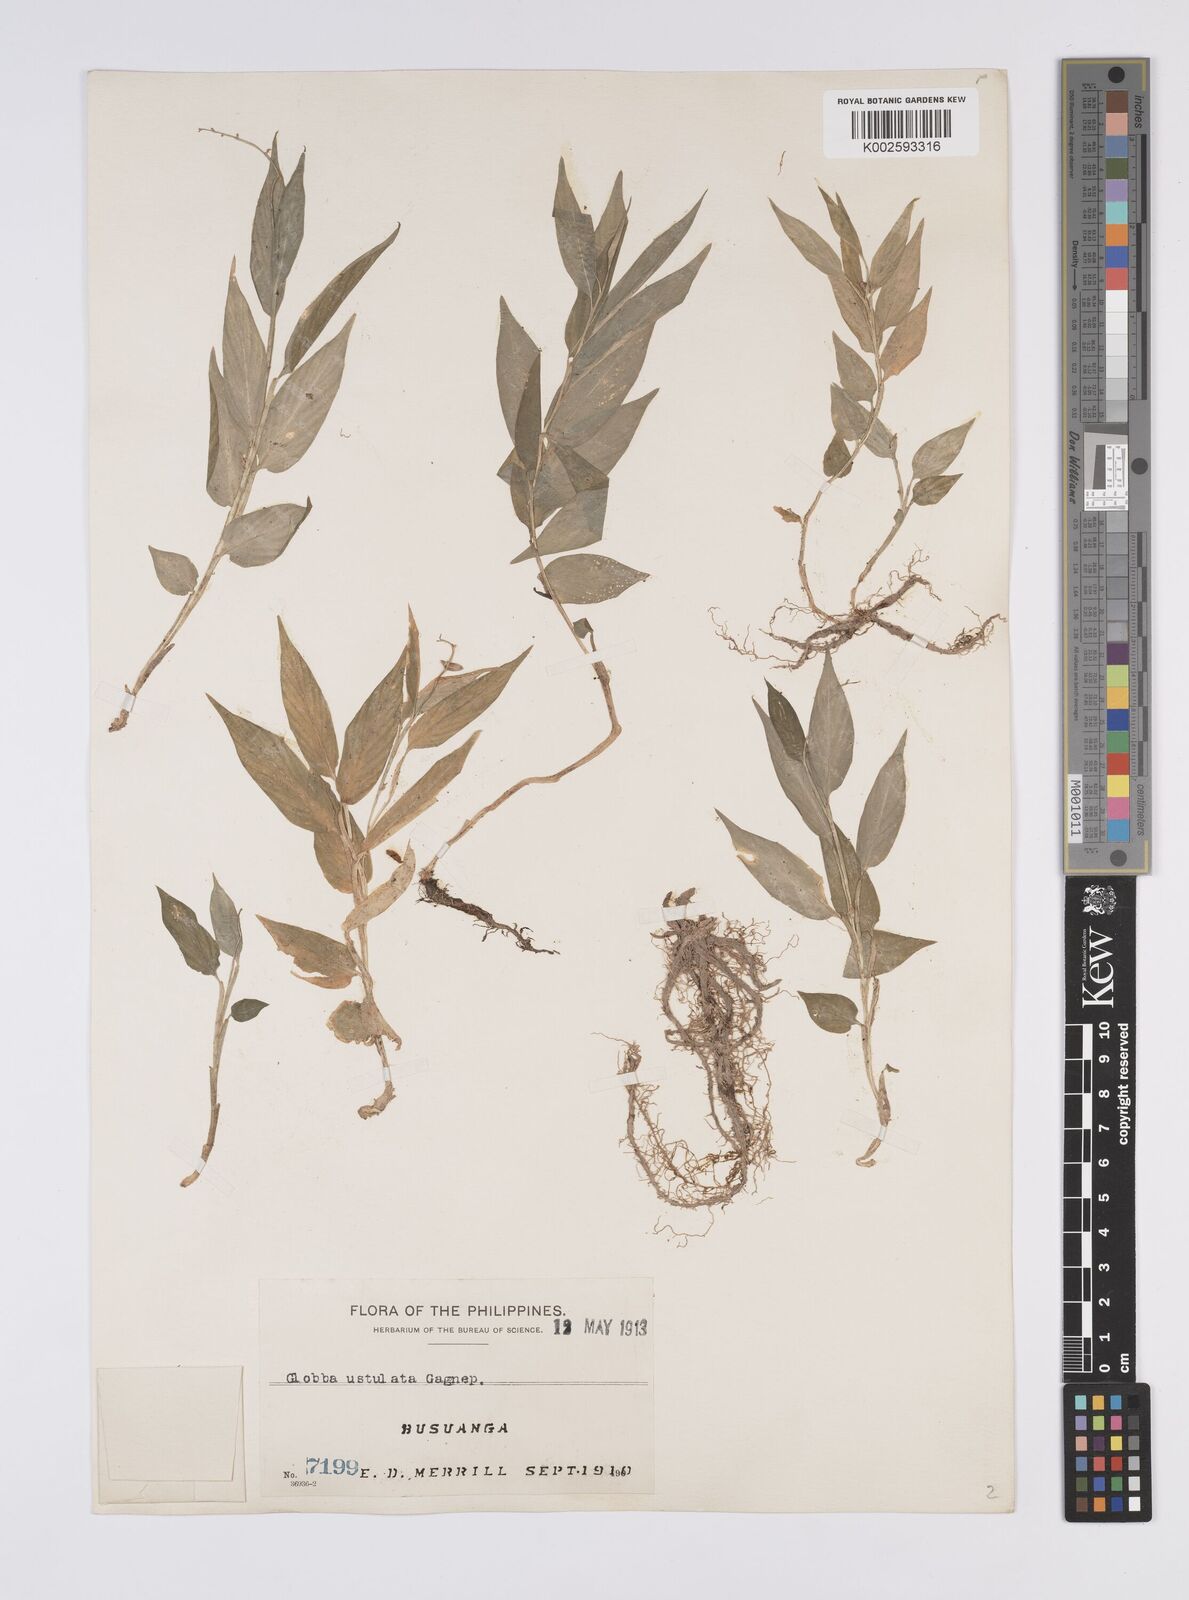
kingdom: Plantae
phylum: Tracheophyta
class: Liliopsida
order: Zingiberales
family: Zingiberaceae
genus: Globba
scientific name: Globba ustulata
